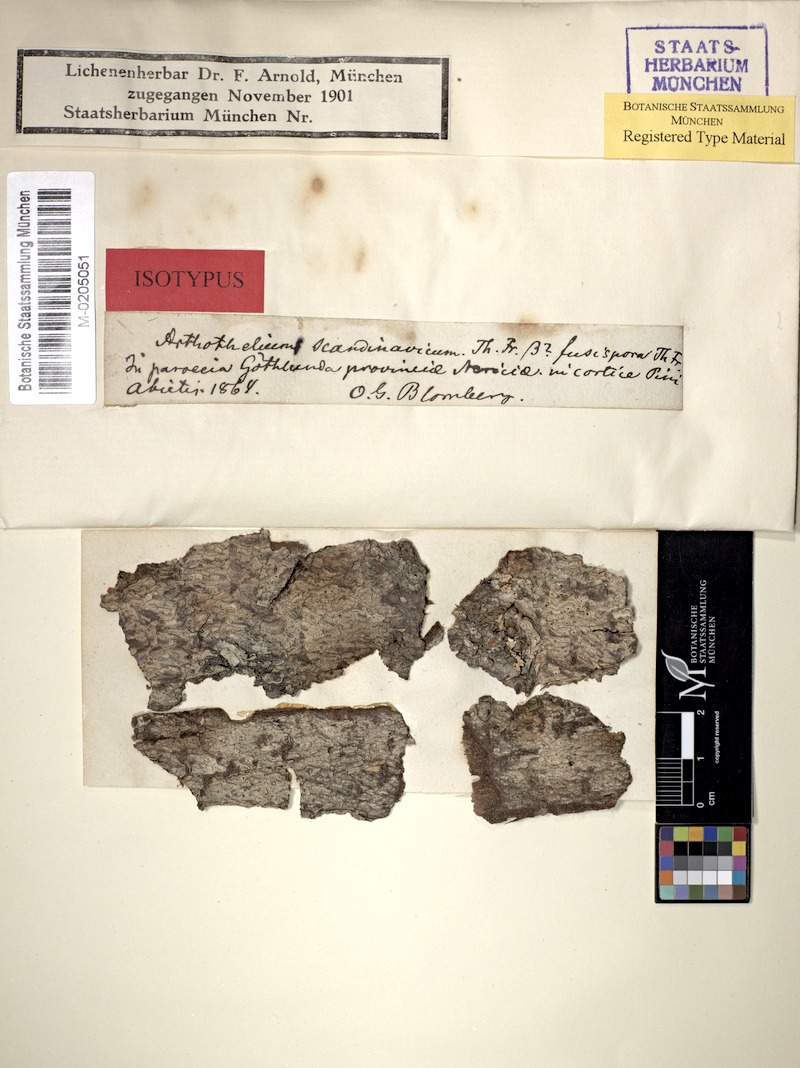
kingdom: Fungi
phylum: Ascomycota
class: Arthoniomycetes
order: Arthoniales
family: Arthoniaceae
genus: Arthothelium
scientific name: Arthothelium scandinavicum
